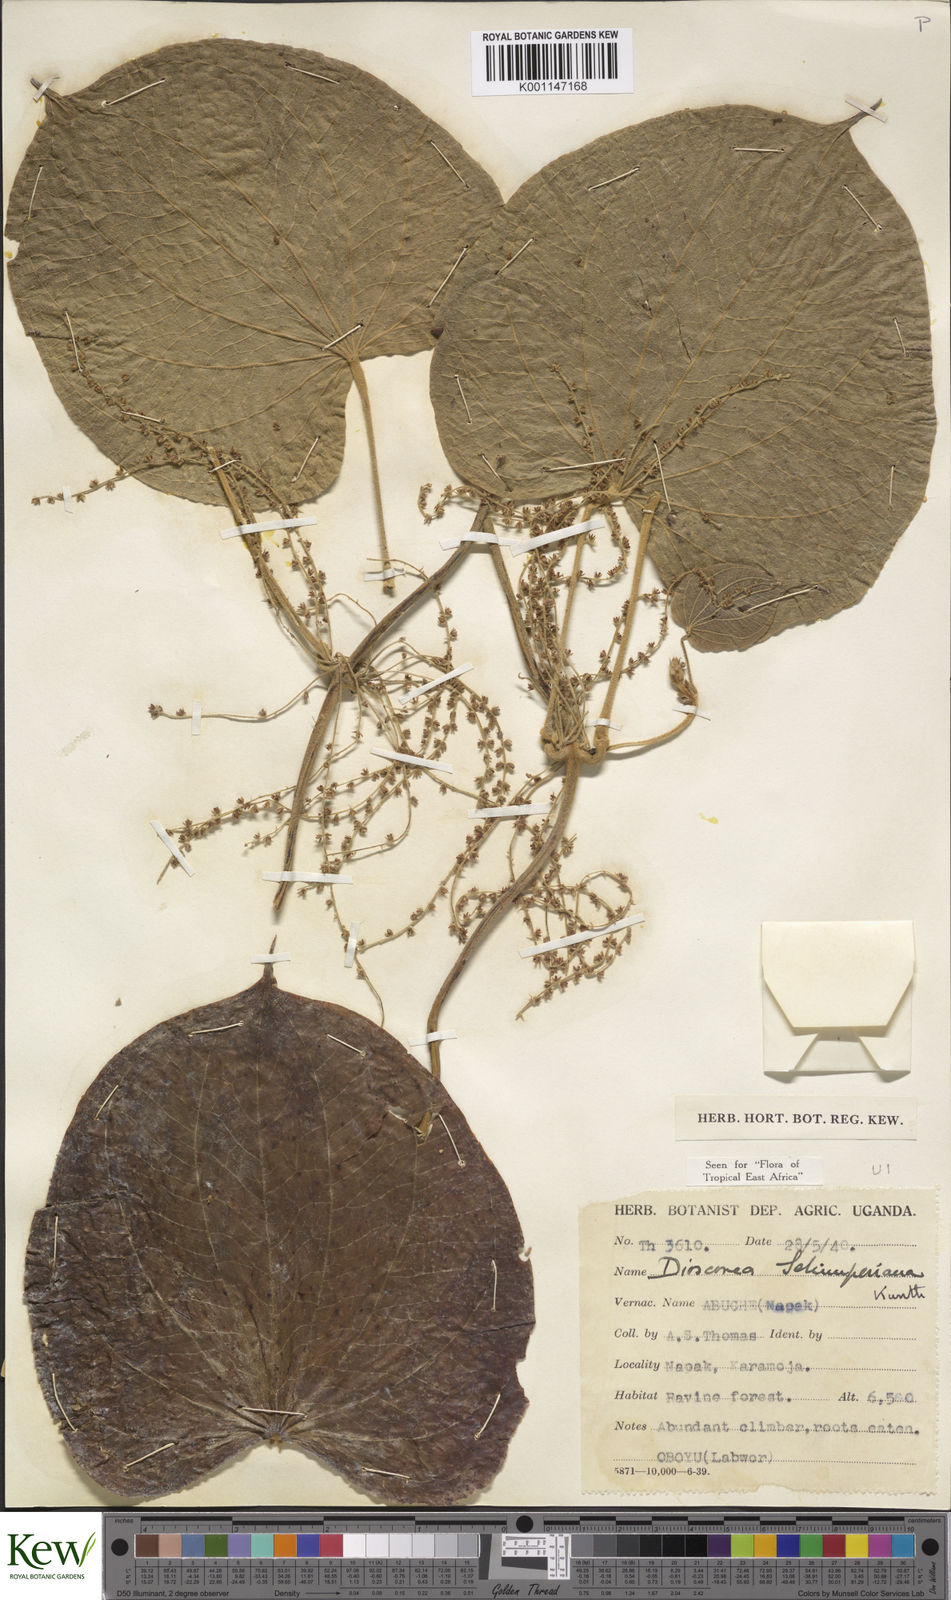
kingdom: Plantae
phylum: Tracheophyta
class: Liliopsida
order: Dioscoreales
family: Dioscoreaceae
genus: Dioscorea
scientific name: Dioscorea schimperiana
